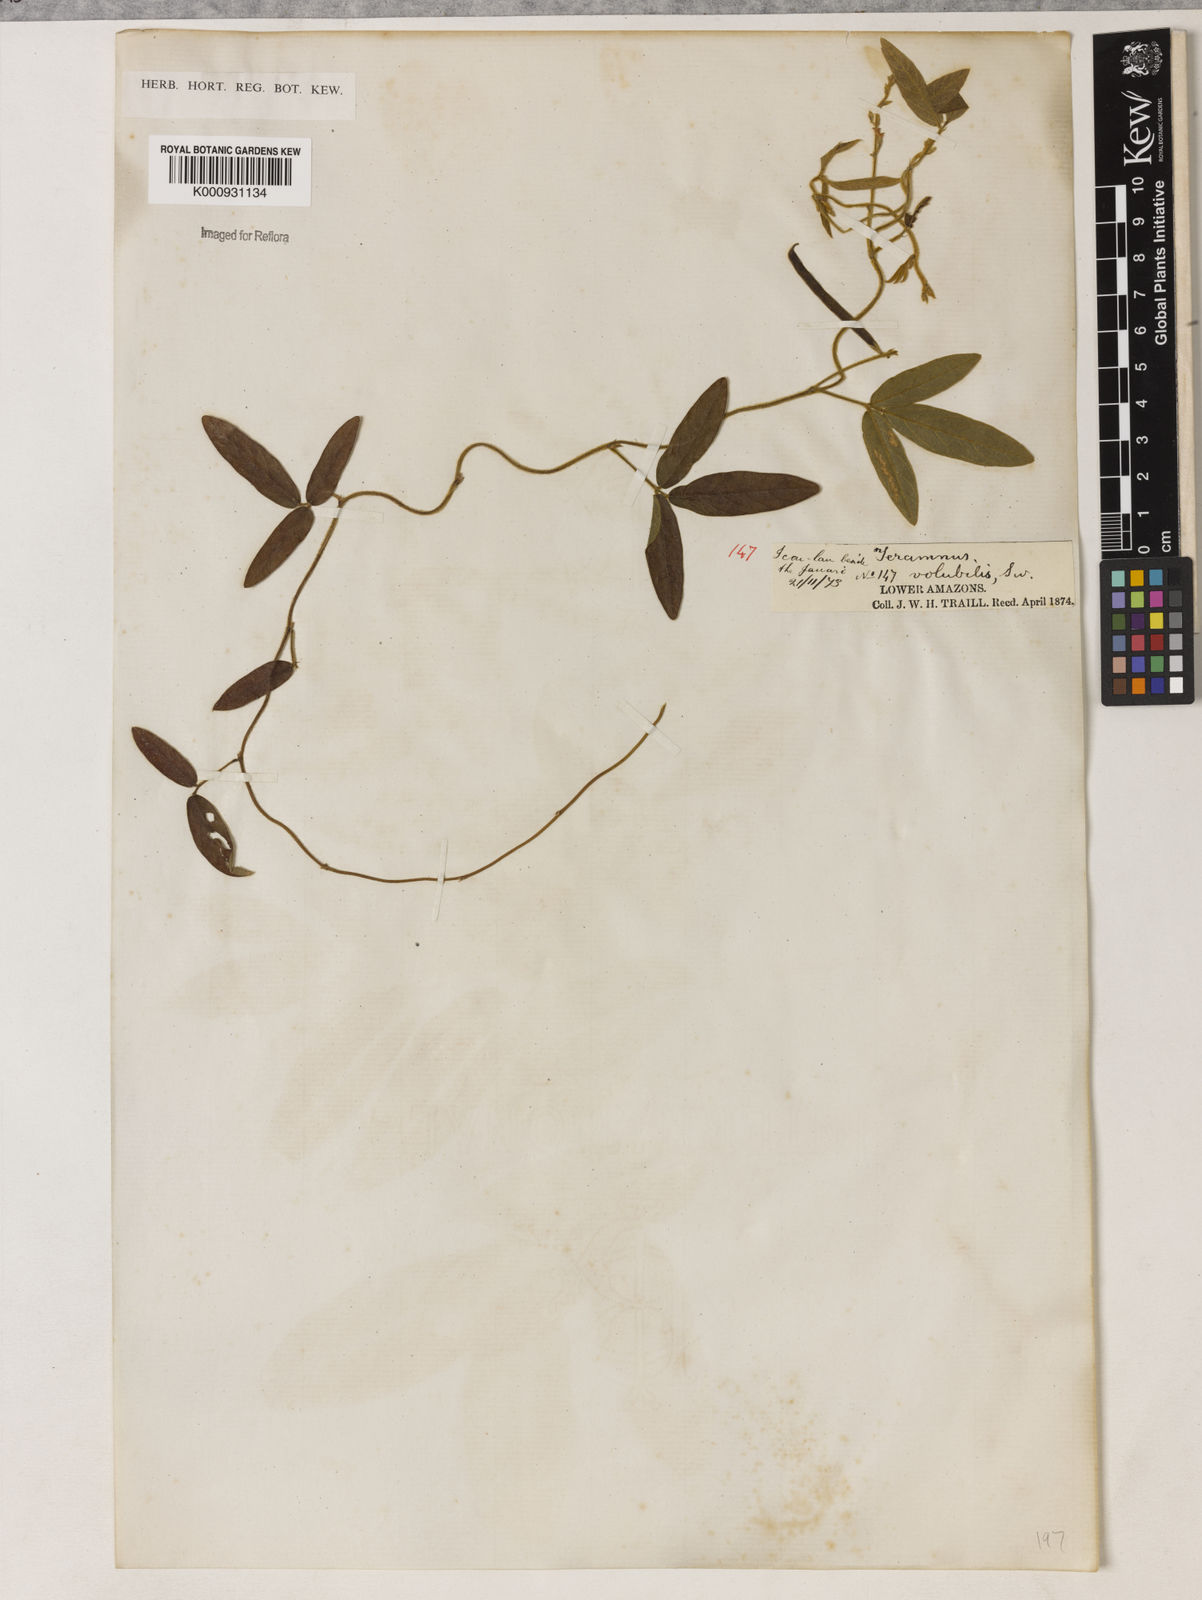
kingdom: Plantae
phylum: Tracheophyta
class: Magnoliopsida
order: Fabales
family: Fabaceae
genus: Teramnus
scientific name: Teramnus
